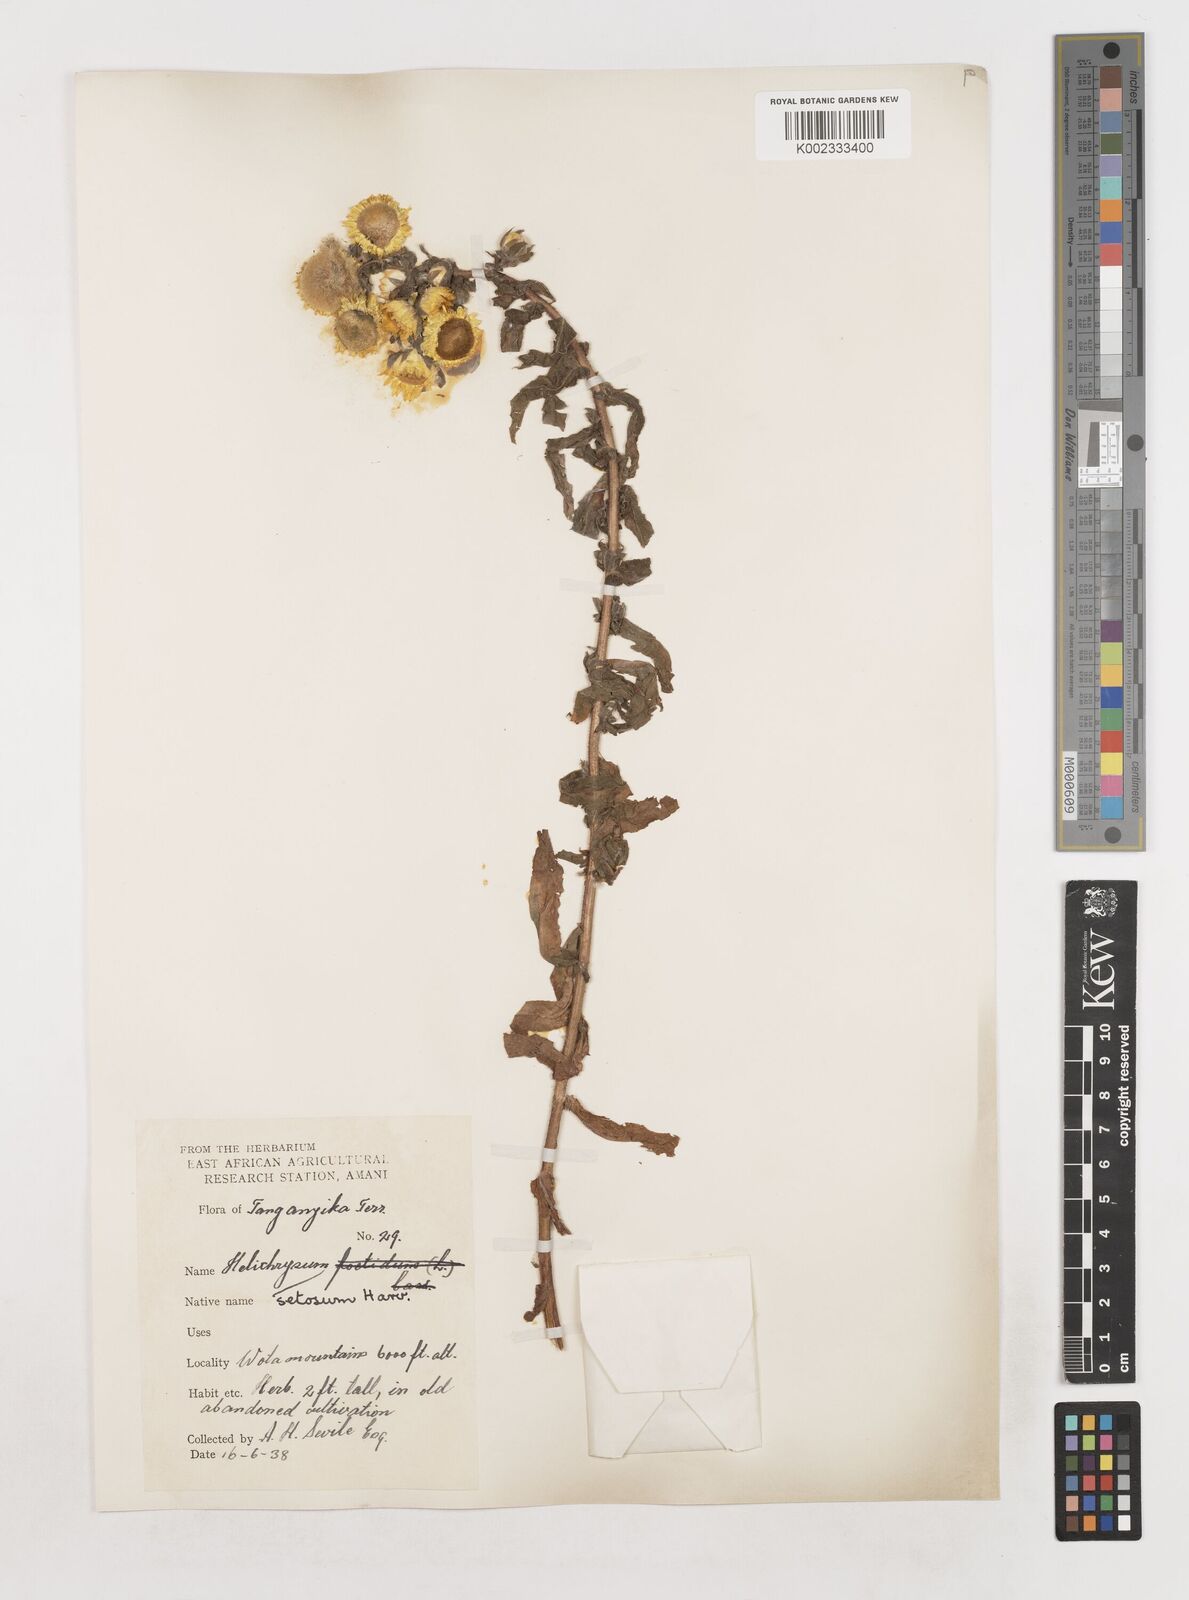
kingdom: Plantae
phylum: Tracheophyta
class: Magnoliopsida
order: Asterales
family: Asteraceae
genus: Helichrysum
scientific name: Helichrysum setosum
